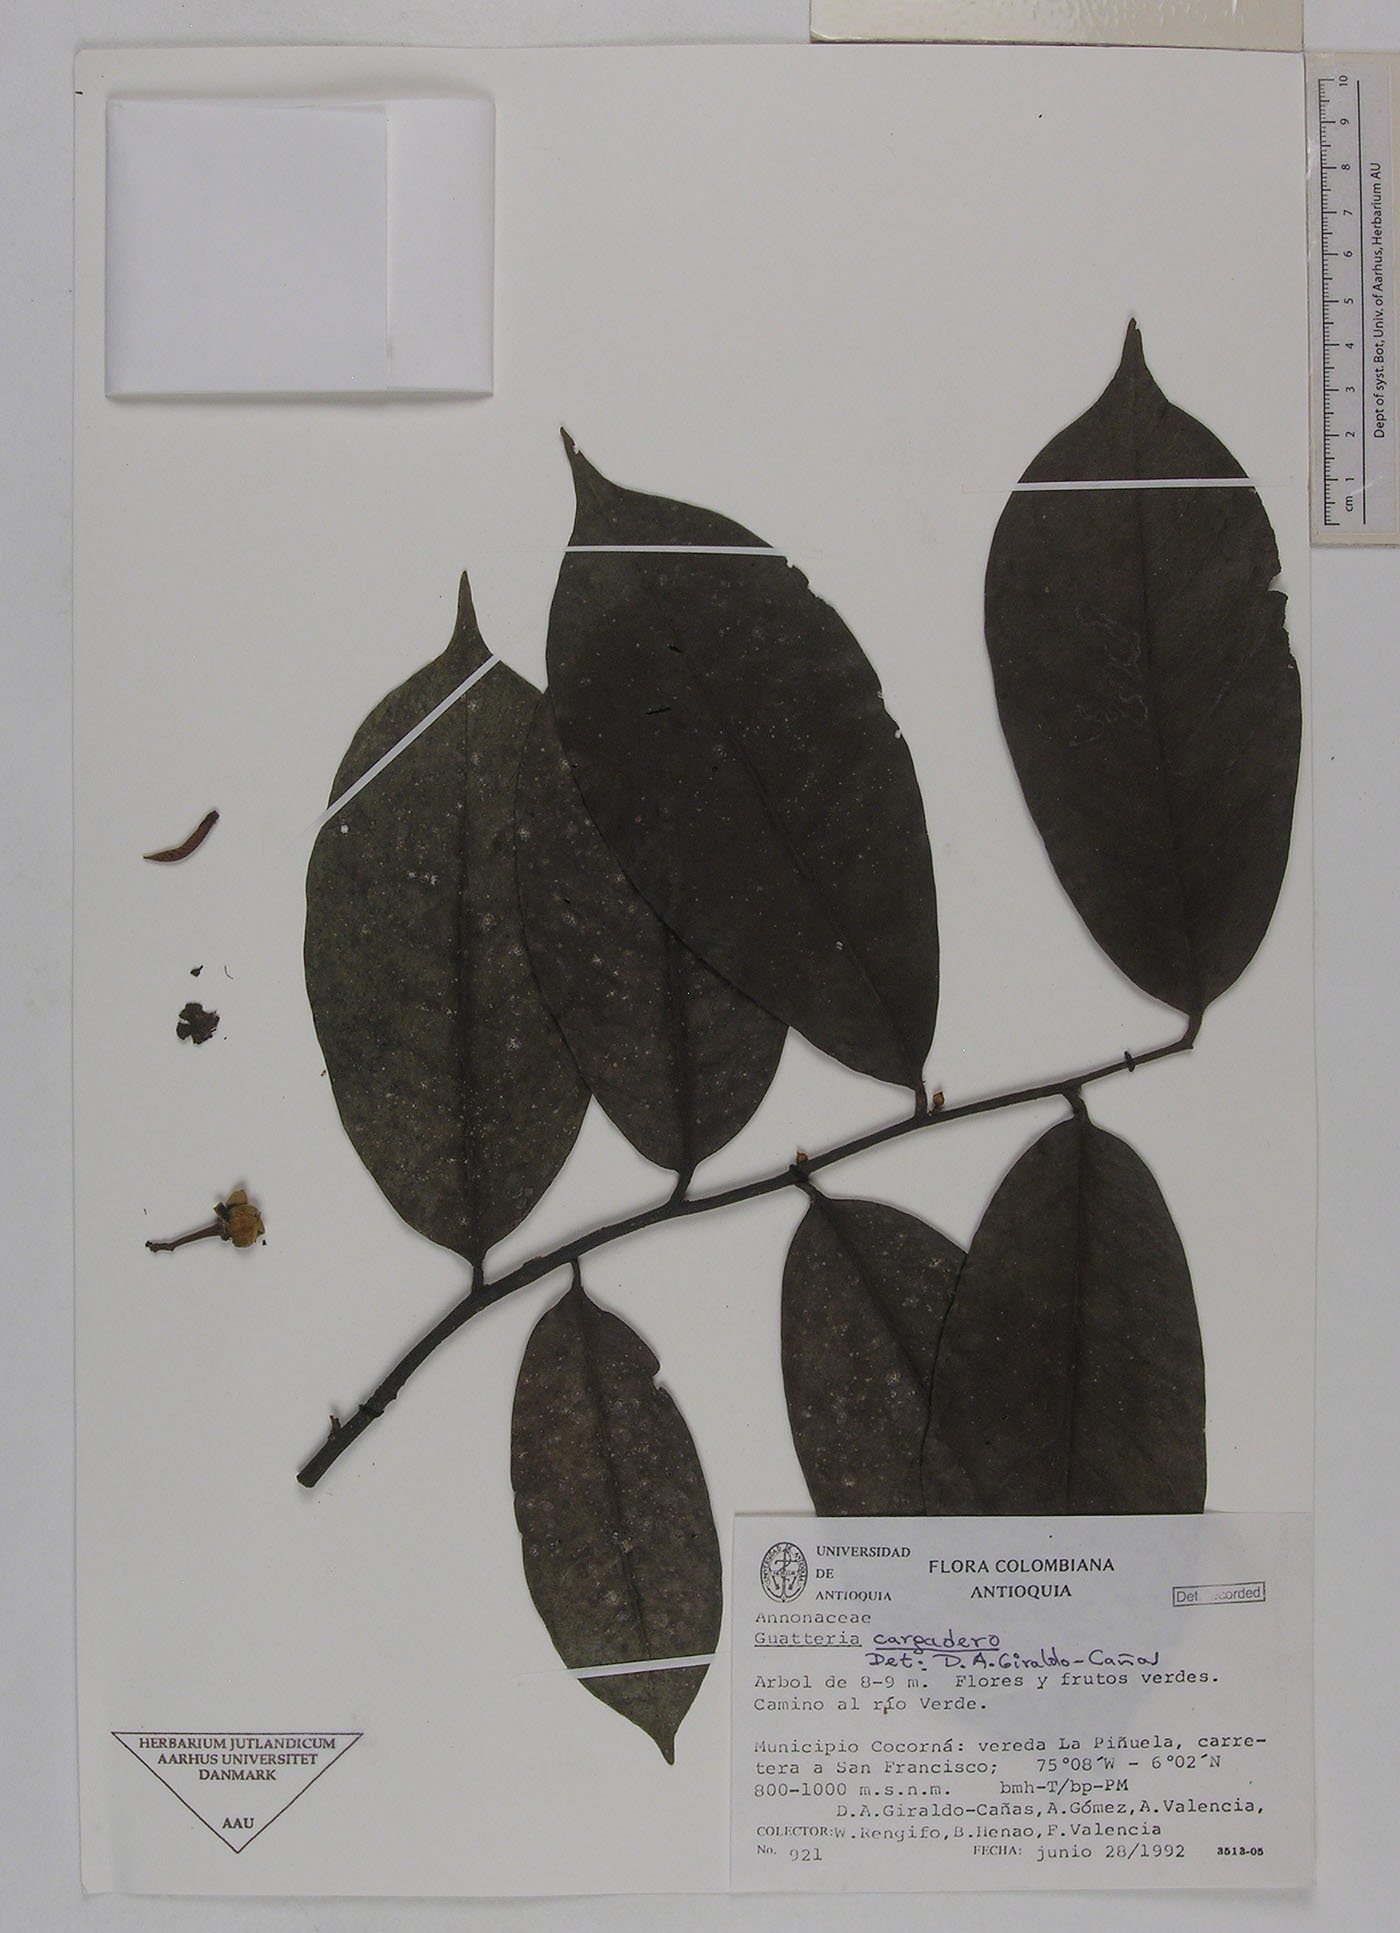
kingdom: Plantae
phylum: Tracheophyta
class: Magnoliopsida
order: Magnoliales
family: Annonaceae
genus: Guatteria
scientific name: Guatteria blepharophylla
